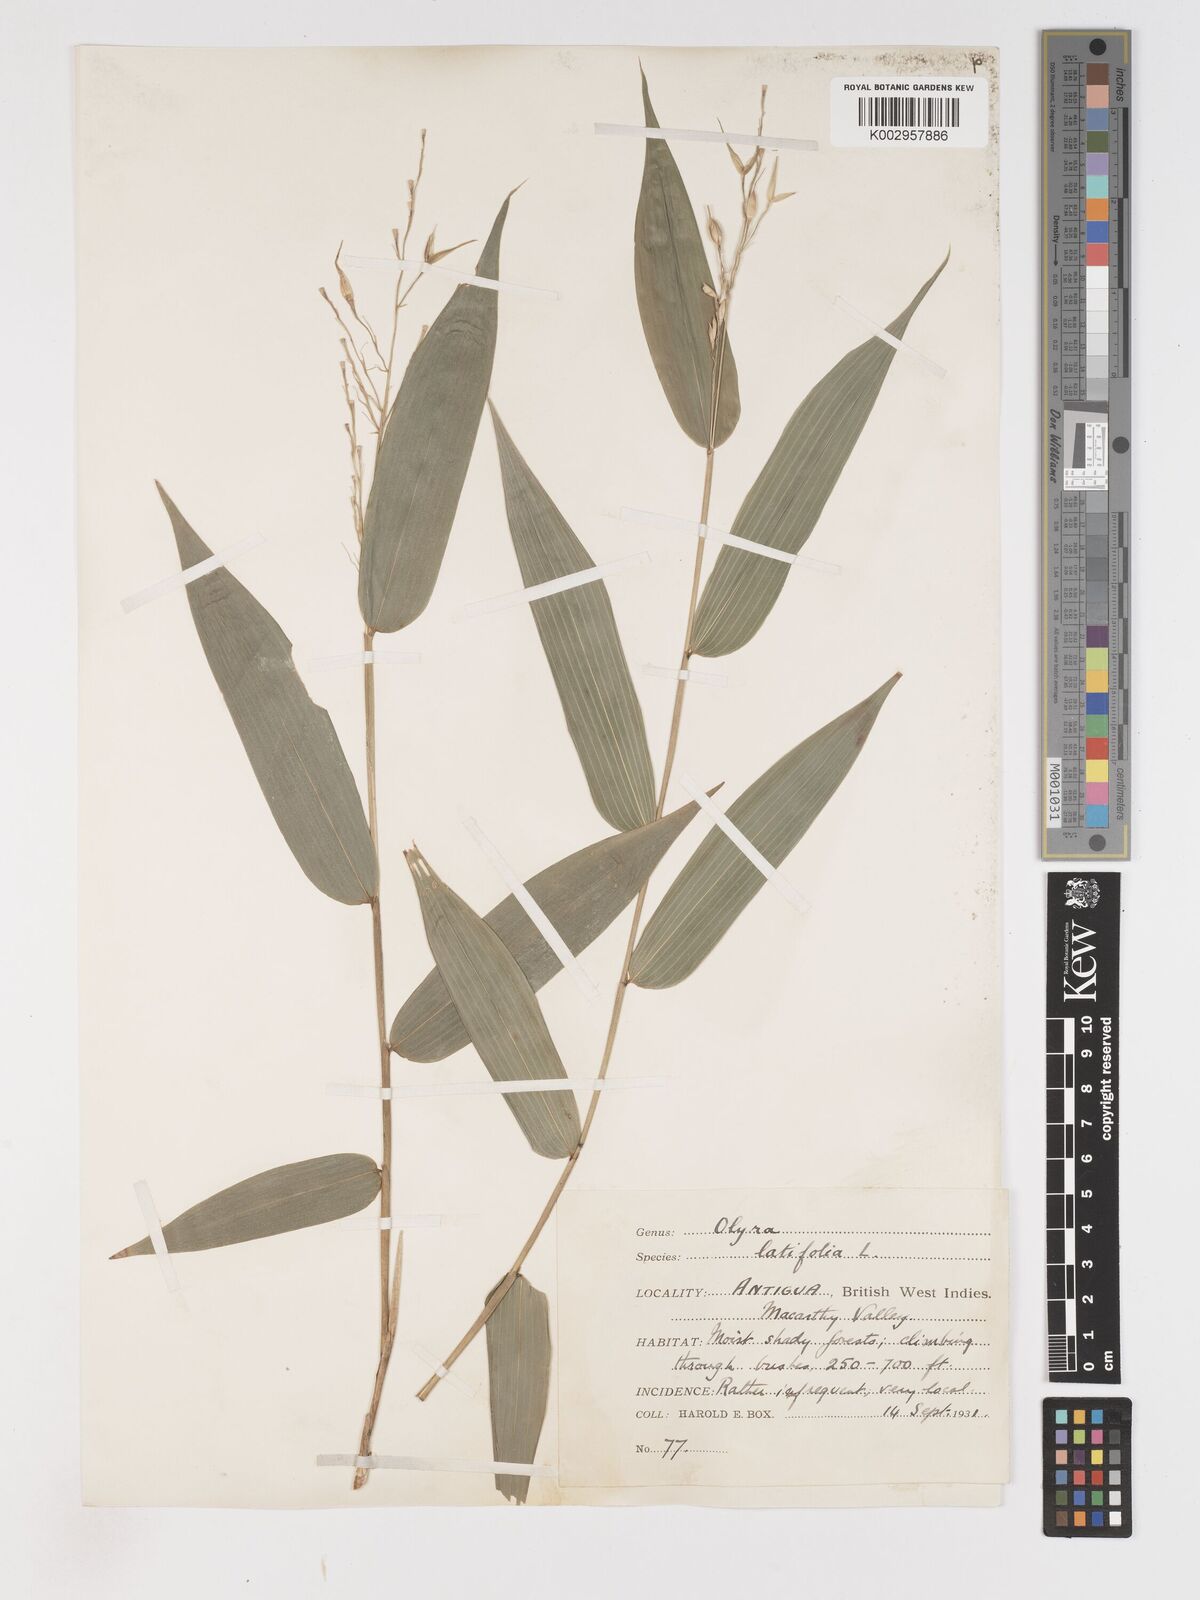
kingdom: Plantae
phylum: Tracheophyta
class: Liliopsida
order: Poales
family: Poaceae
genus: Olyra
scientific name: Olyra latifolia
